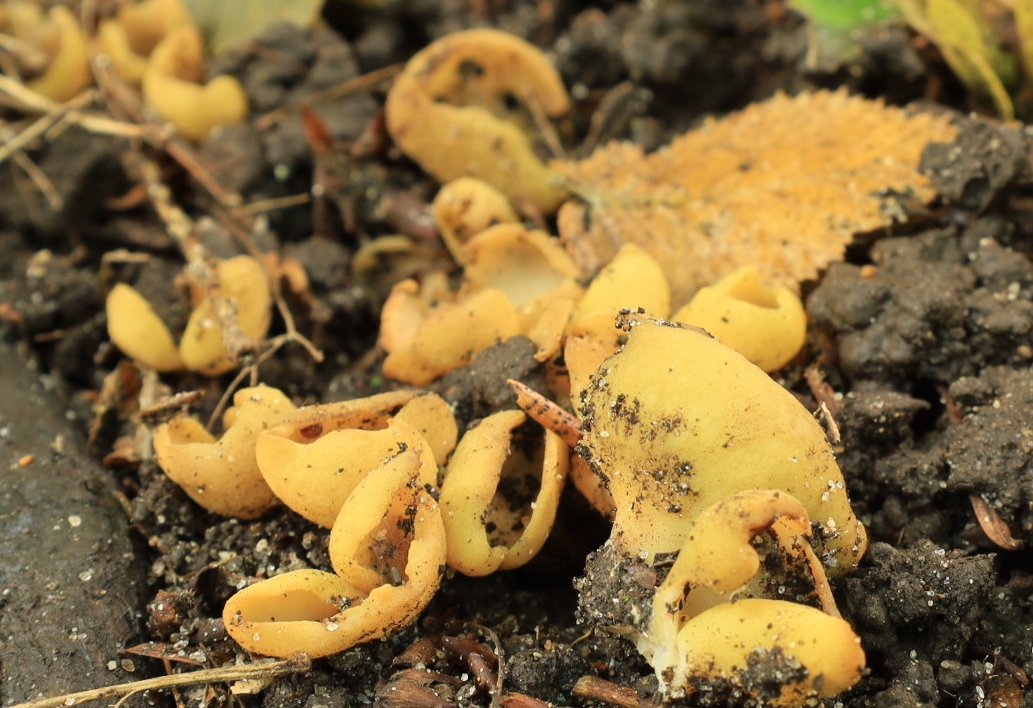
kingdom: Fungi
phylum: Ascomycota
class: Pezizomycetes
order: Pezizales
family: Otideaceae
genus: Otidea
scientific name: Otidea cantharella
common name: citrongul ørebæger
